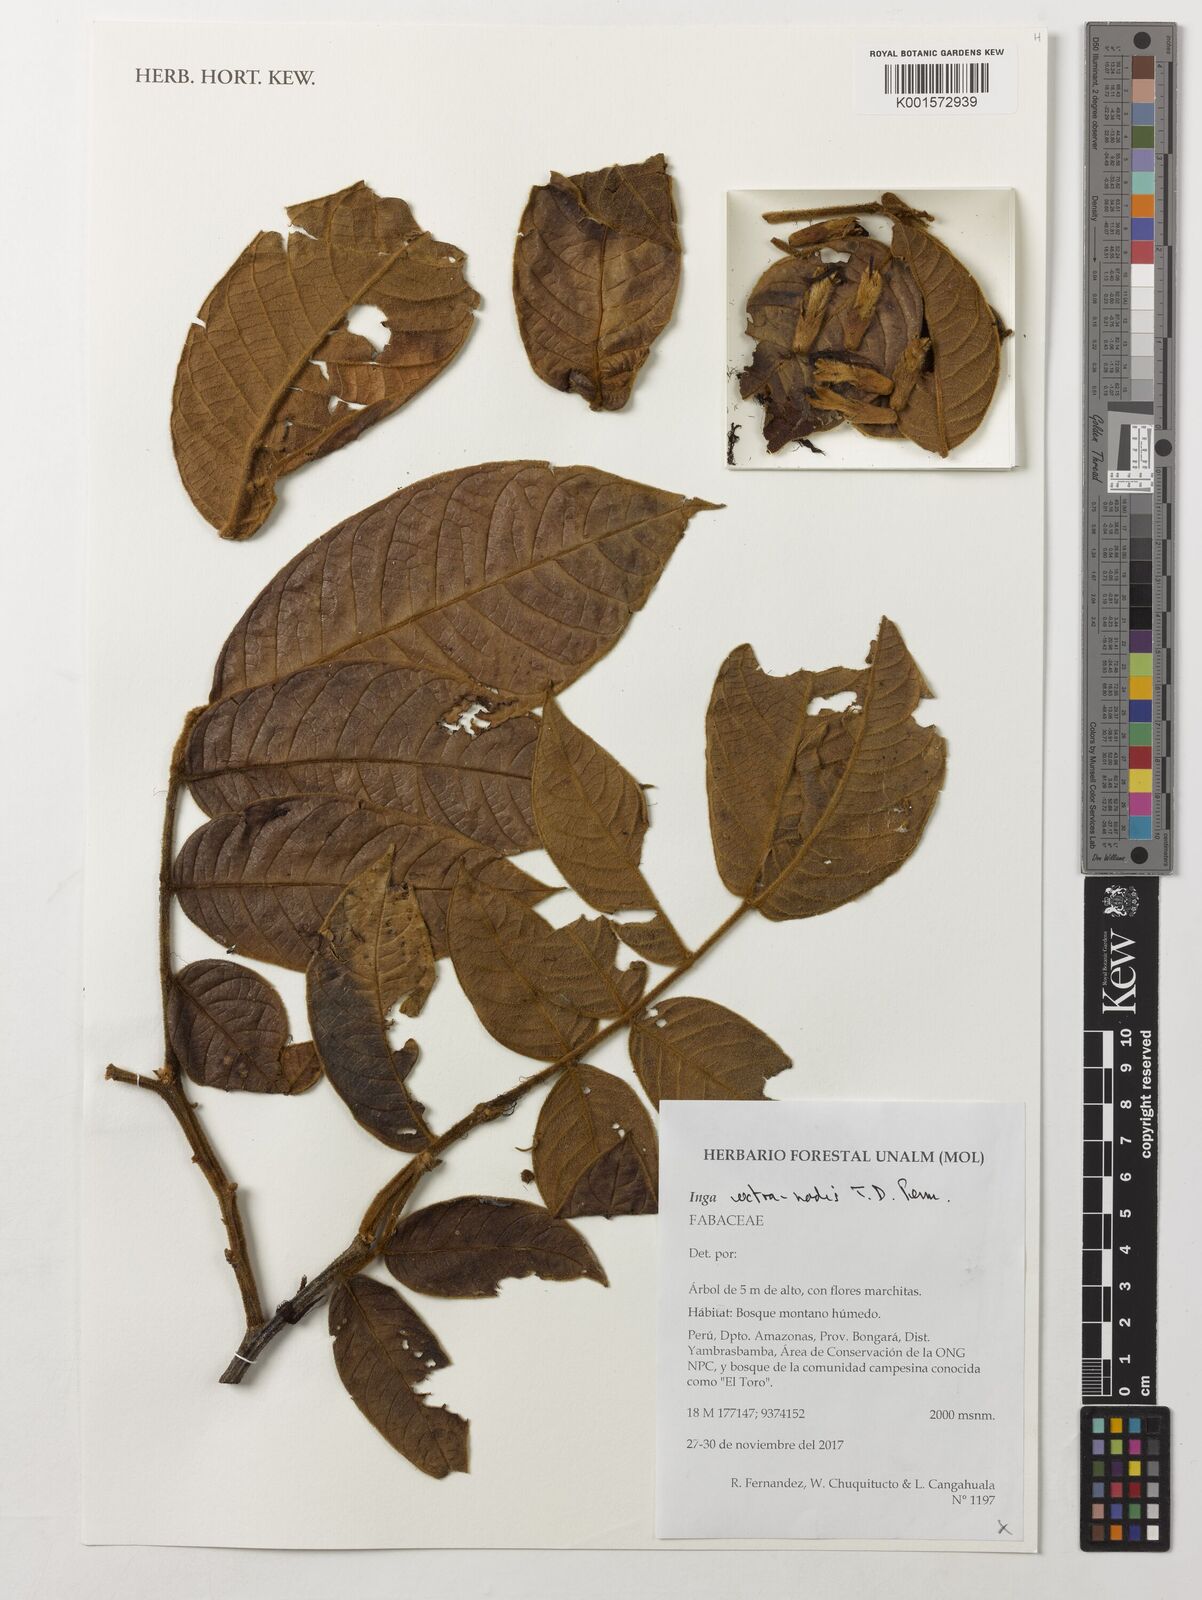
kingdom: Plantae
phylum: Tracheophyta
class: Magnoliopsida
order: Fabales
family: Fabaceae
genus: Inga
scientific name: Inga extra-nodis
